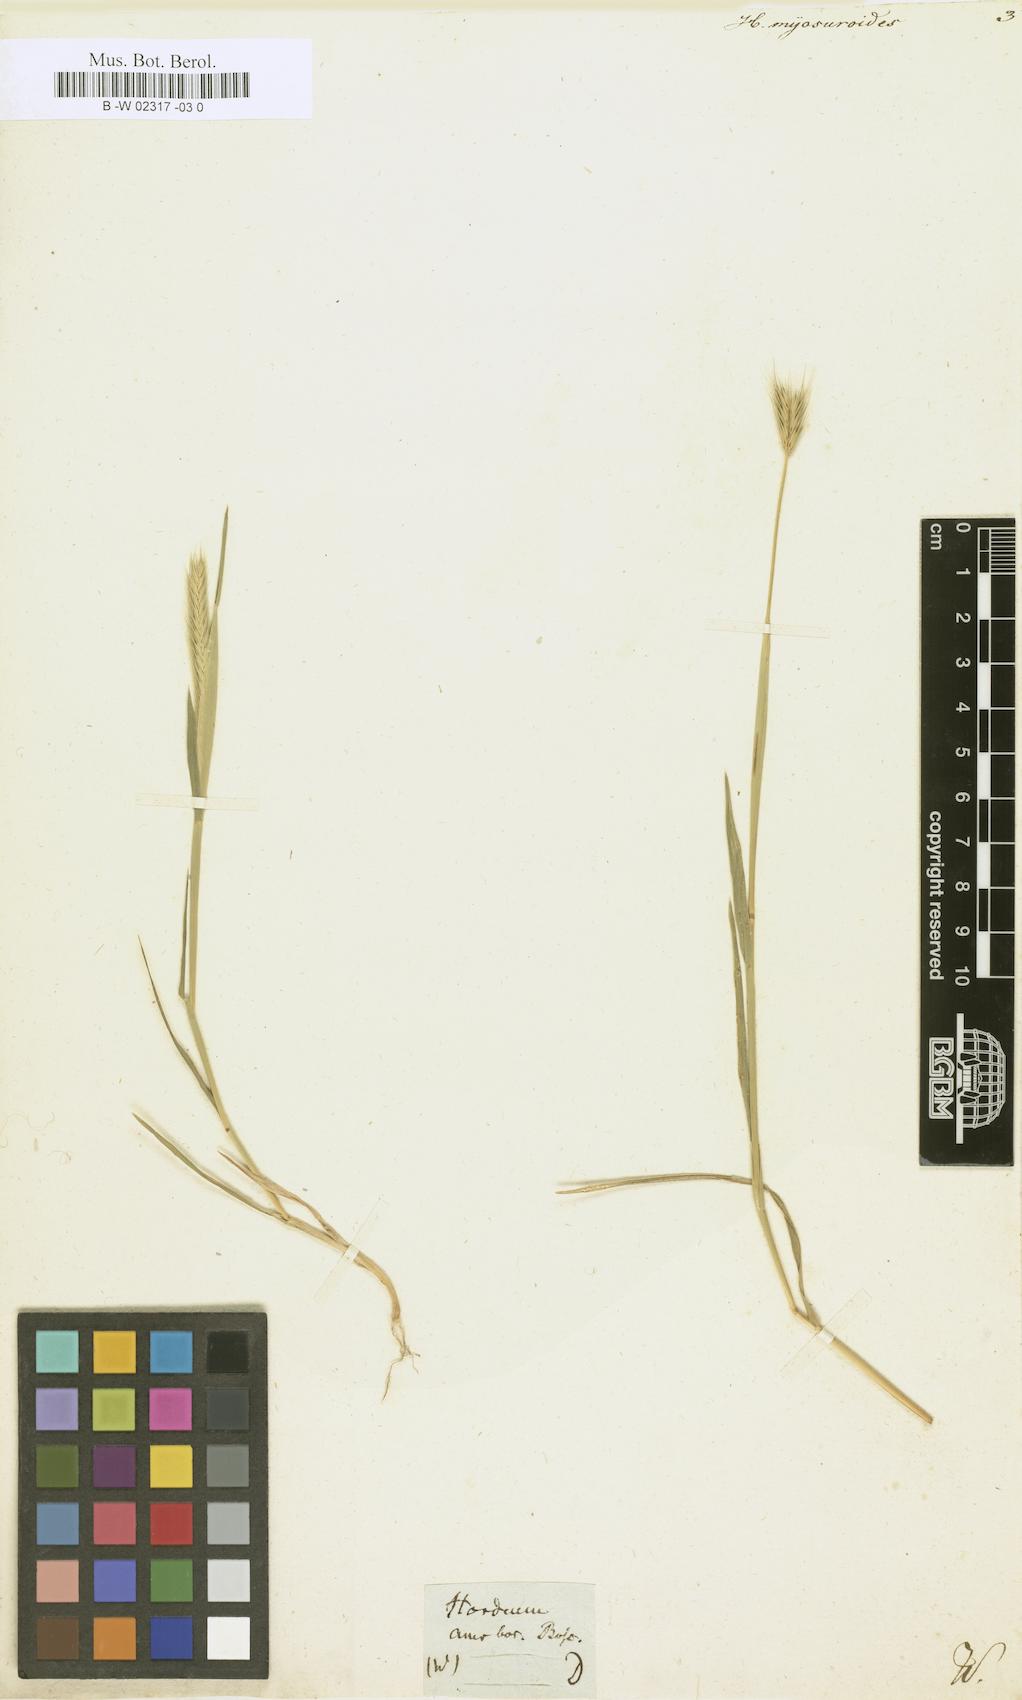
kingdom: Plantae
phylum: Tracheophyta
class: Liliopsida
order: Poales
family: Poaceae
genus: Hordeum
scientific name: Hordeum
